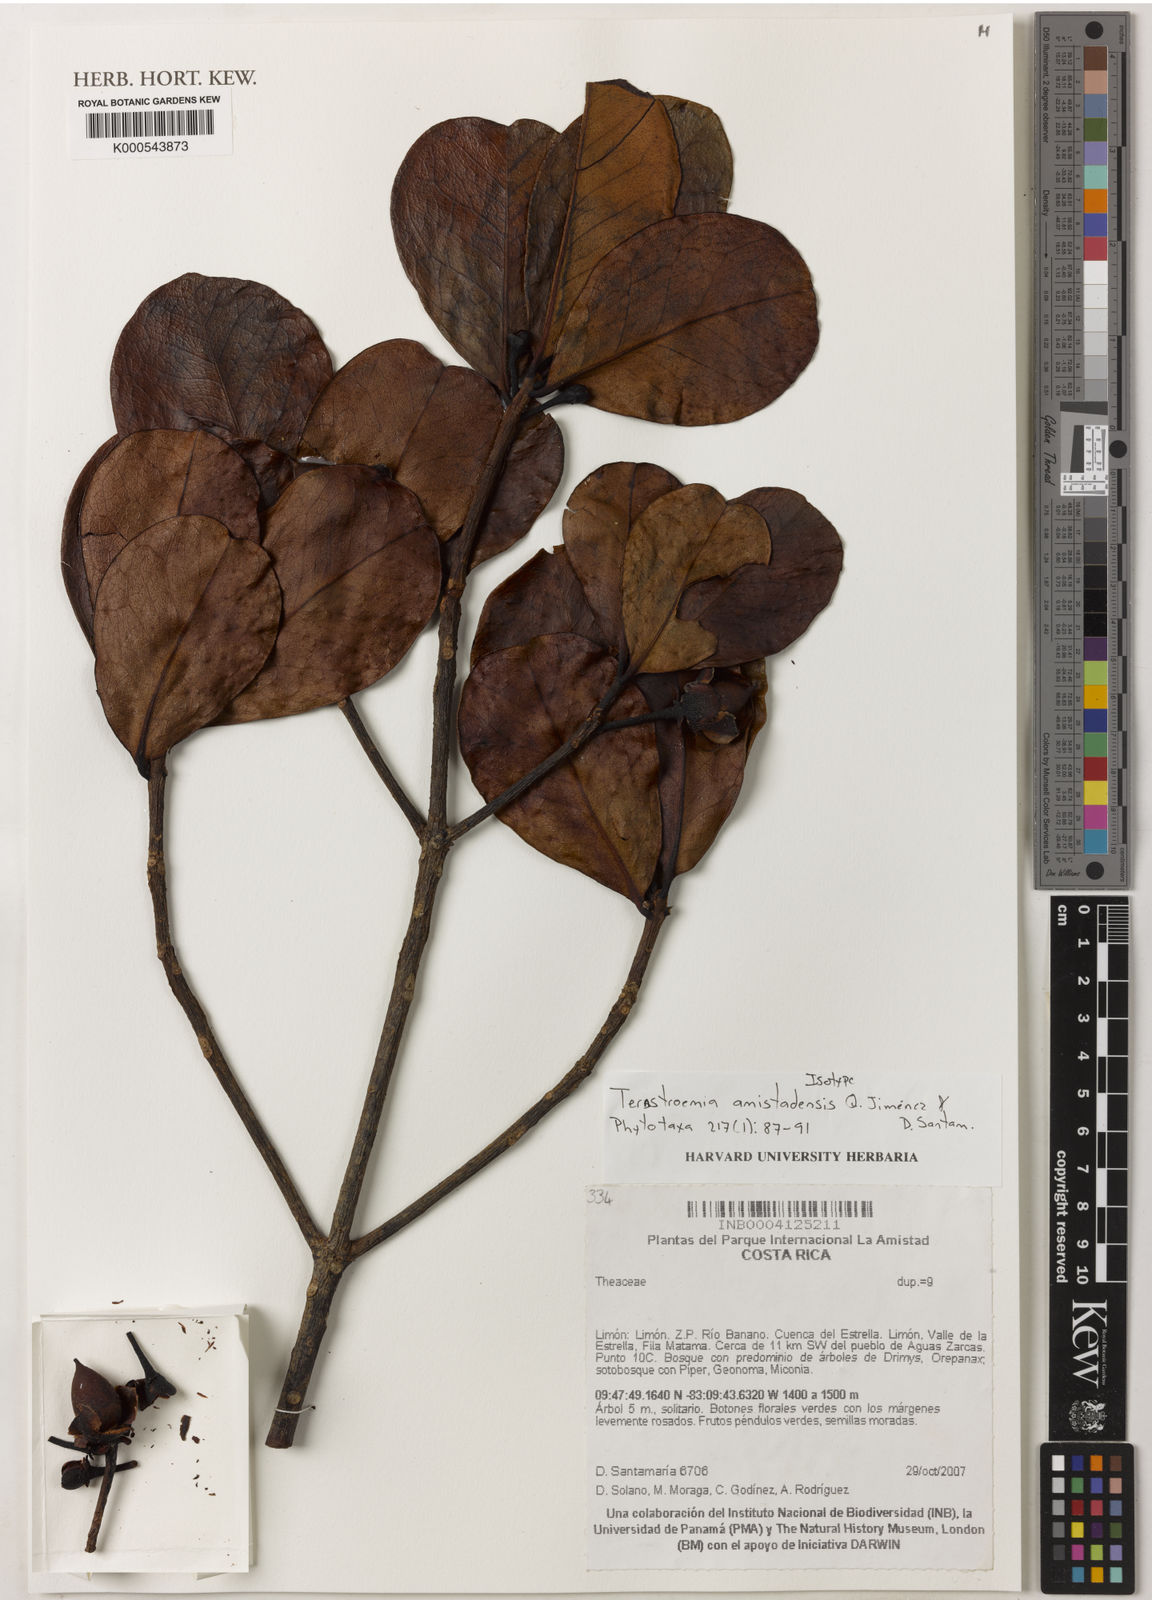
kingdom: Plantae
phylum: Tracheophyta
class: Magnoliopsida
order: Ericales
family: Pentaphylacaceae
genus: Ternstroemia
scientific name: Ternstroemia
